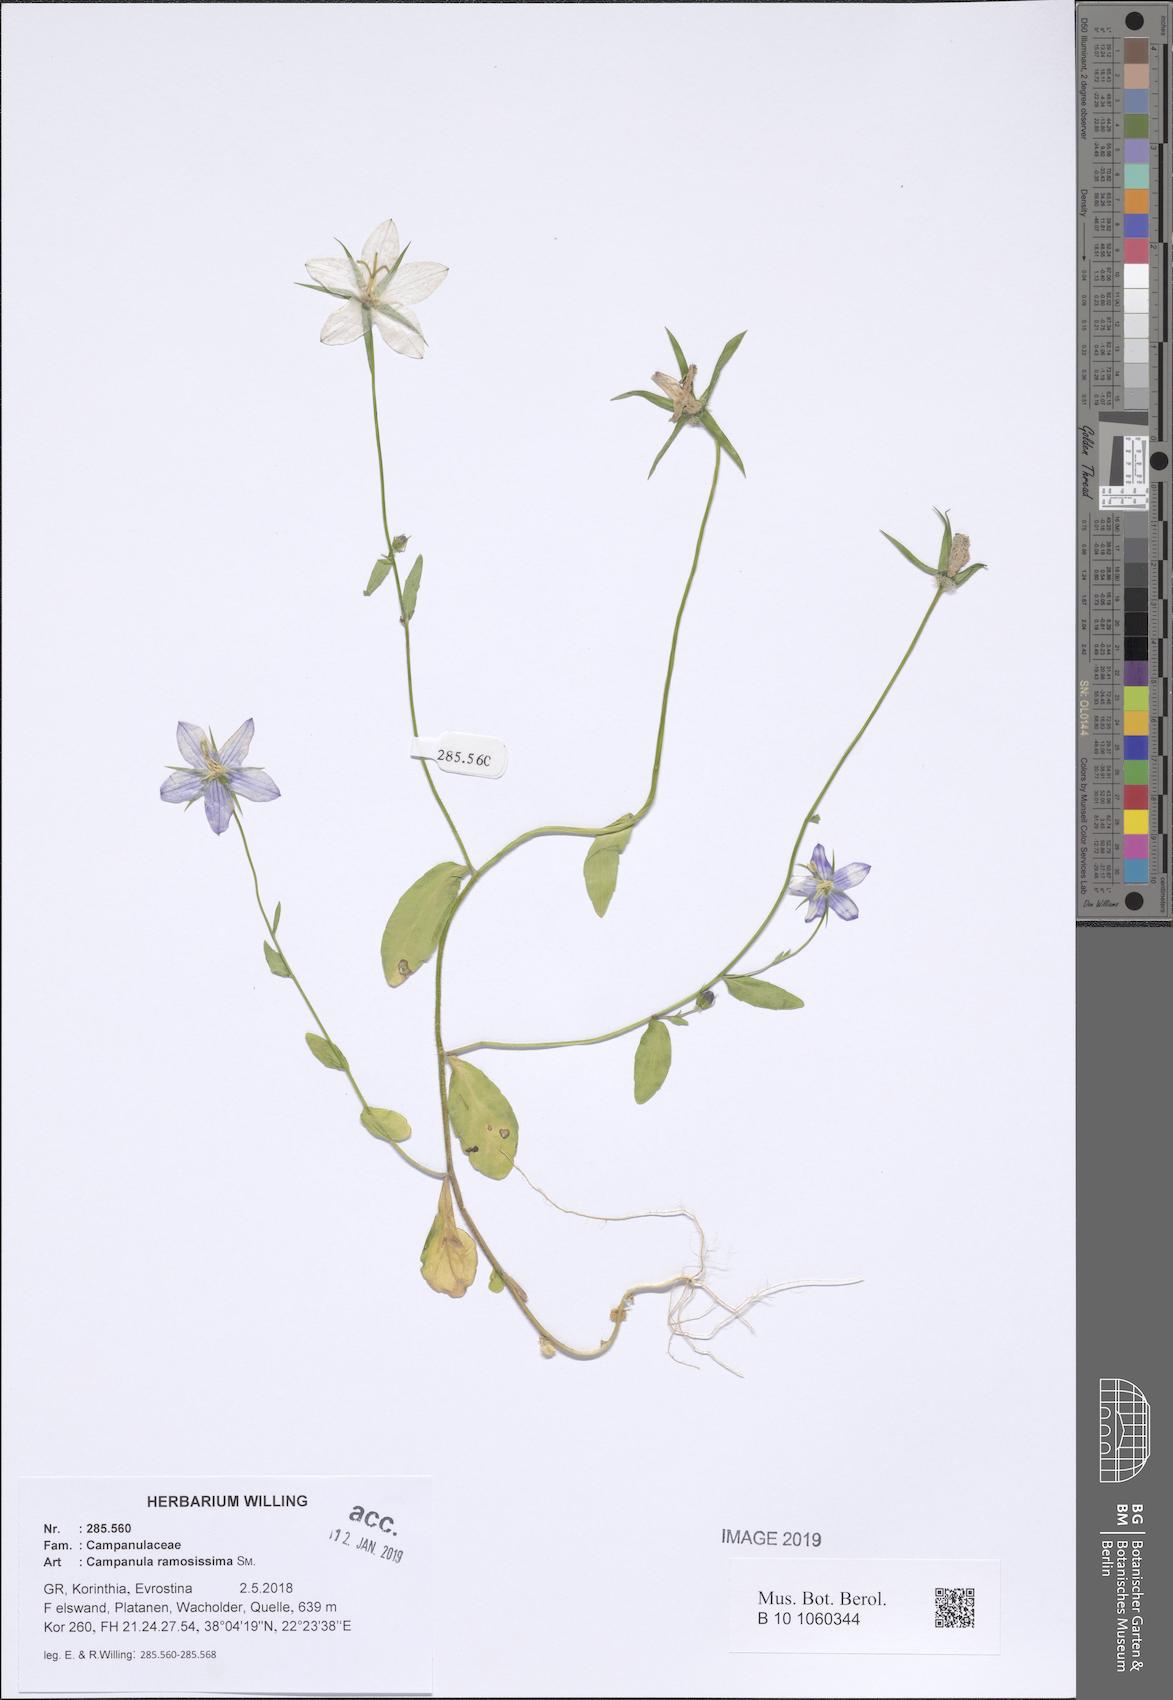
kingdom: Plantae
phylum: Tracheophyta
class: Magnoliopsida
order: Asterales
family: Campanulaceae
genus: Campanula
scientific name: Campanula ramosissima
